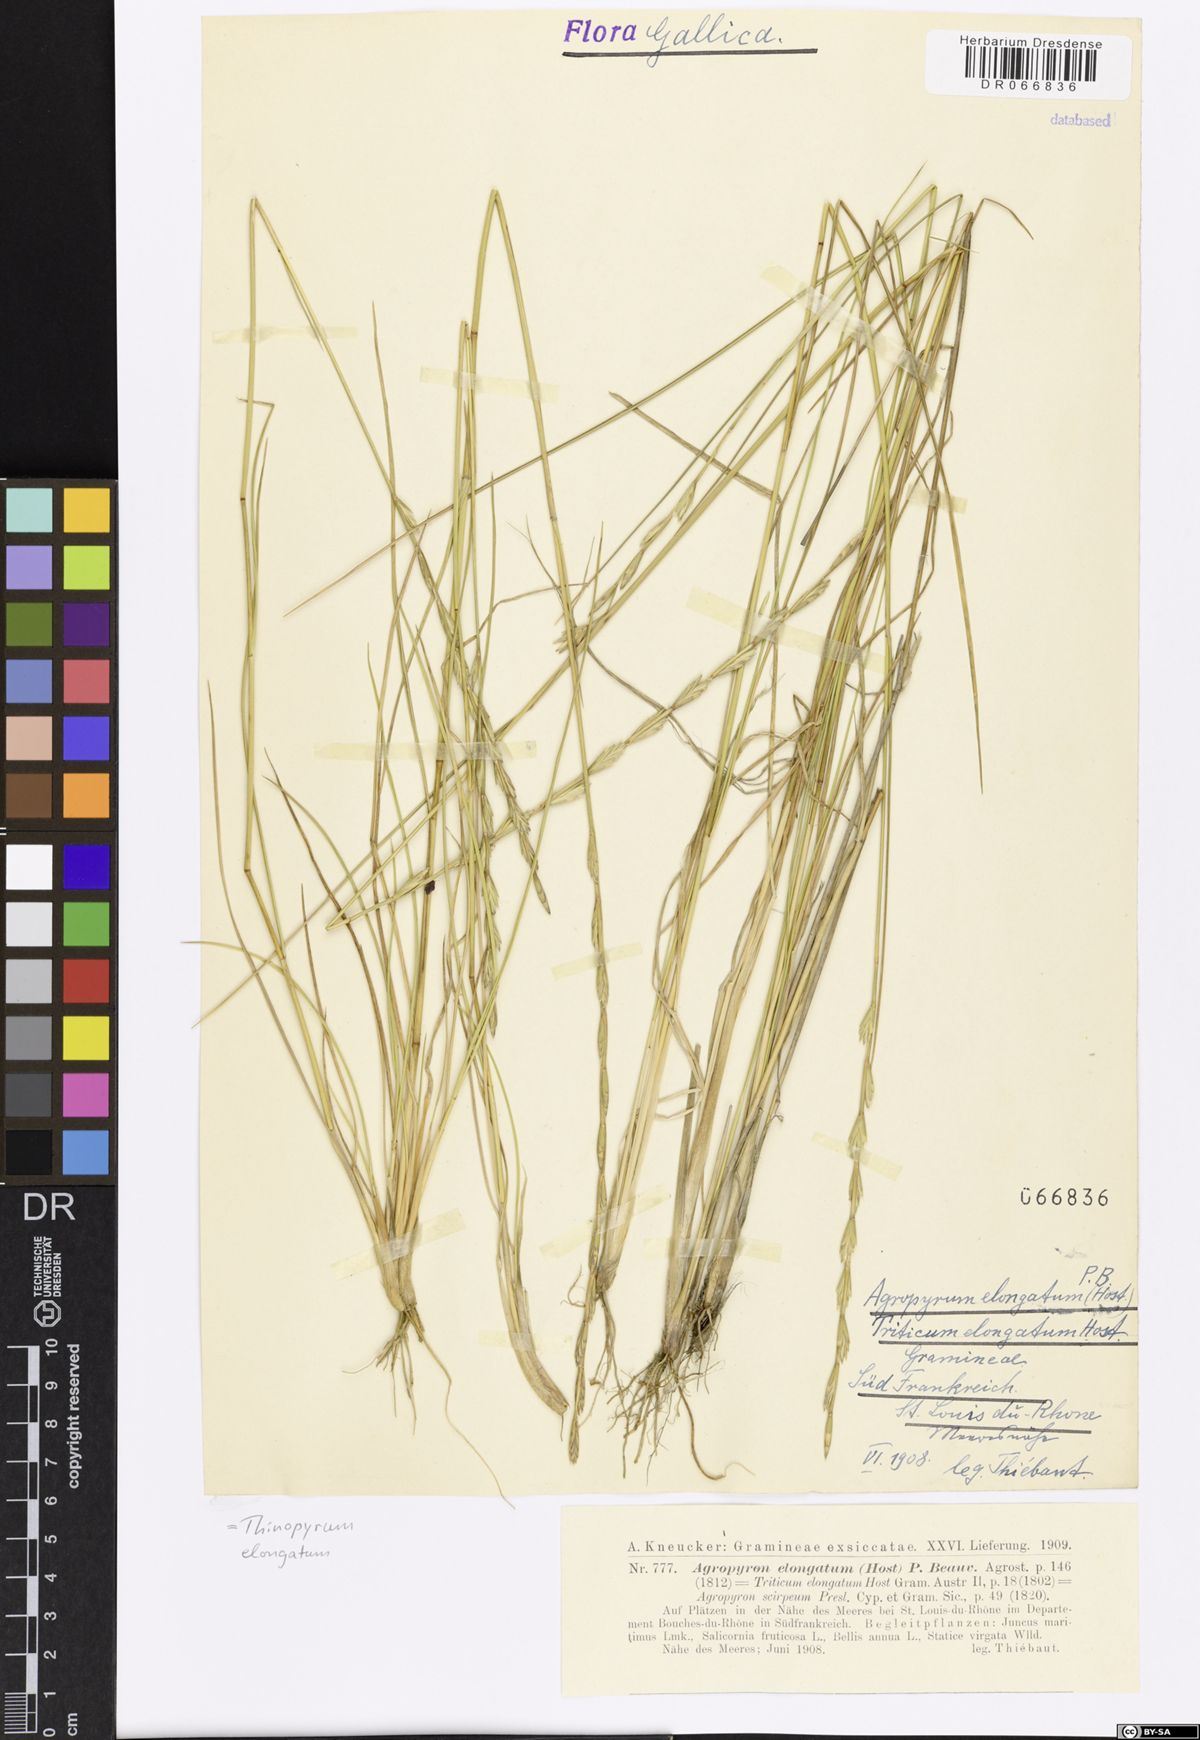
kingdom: Plantae
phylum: Tracheophyta
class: Liliopsida
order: Poales
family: Poaceae
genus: Thinopyrum
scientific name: Thinopyrum elongatum
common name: Tall wheatgrass
